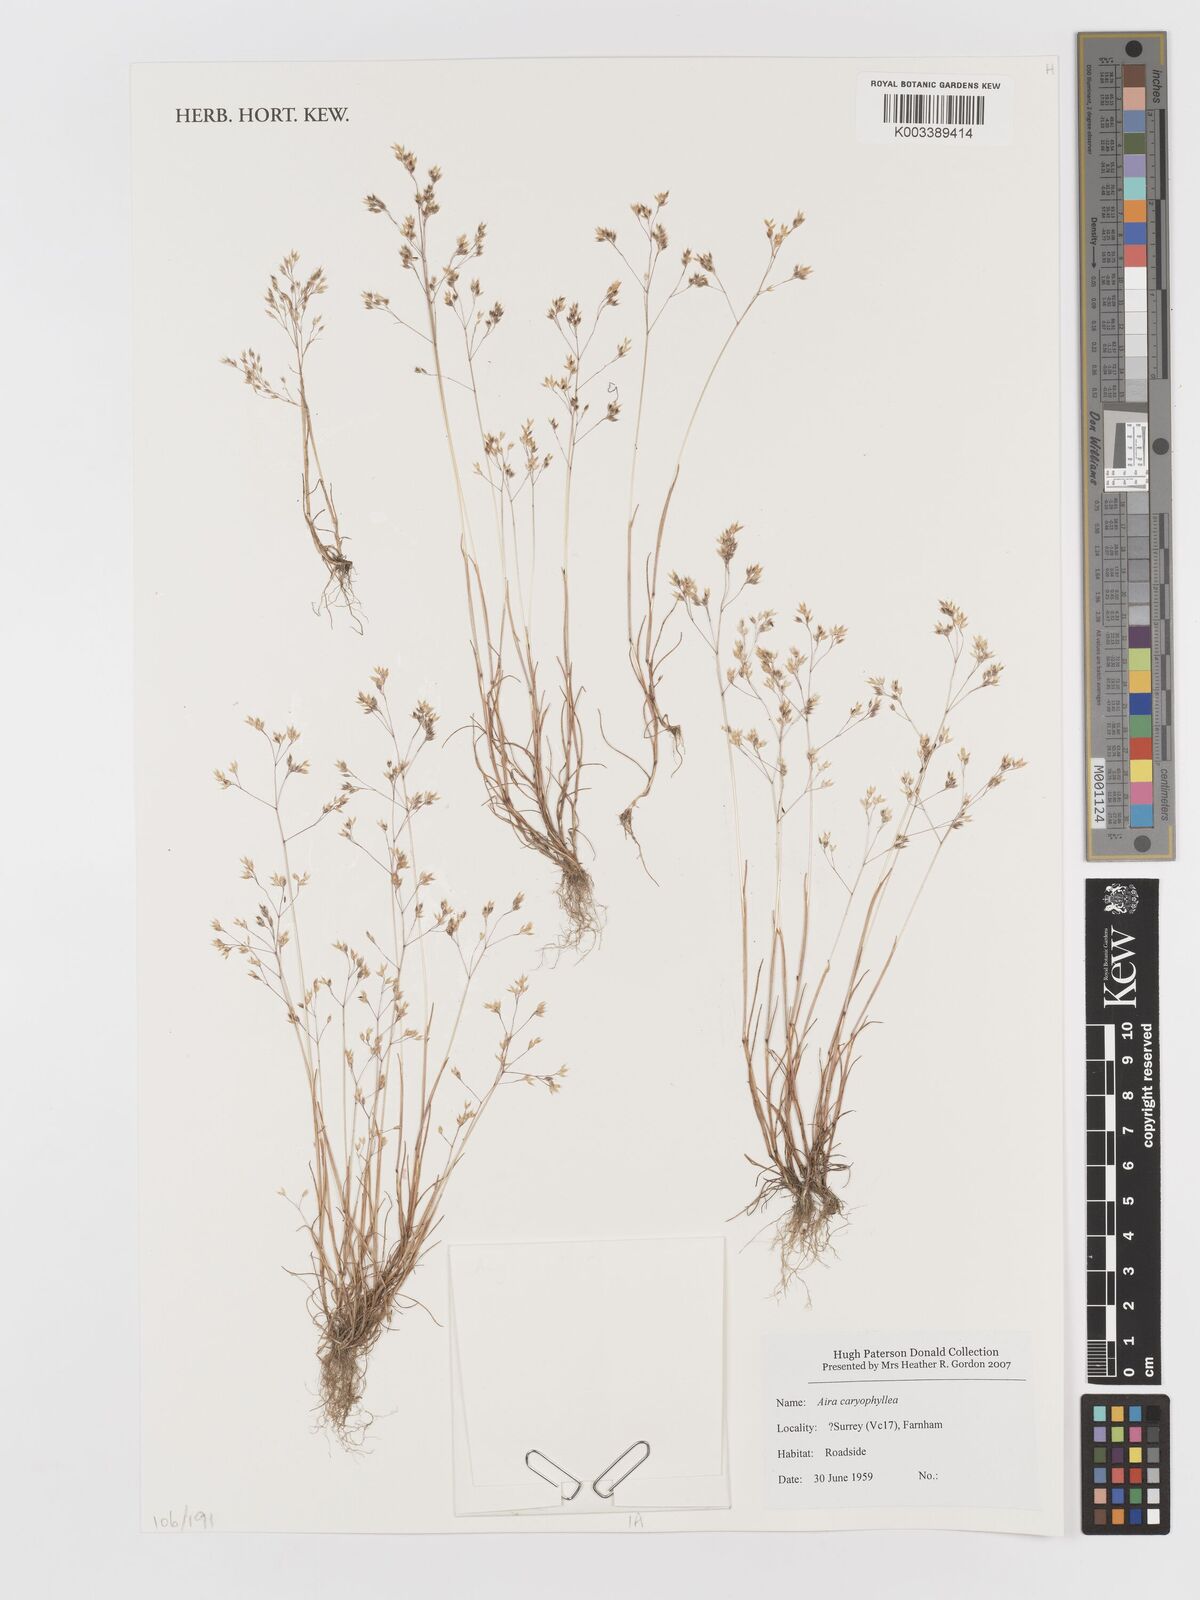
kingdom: Plantae
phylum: Tracheophyta
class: Liliopsida
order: Poales
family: Poaceae
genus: Aira
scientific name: Aira caryophyllea
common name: Silver hairgrass
